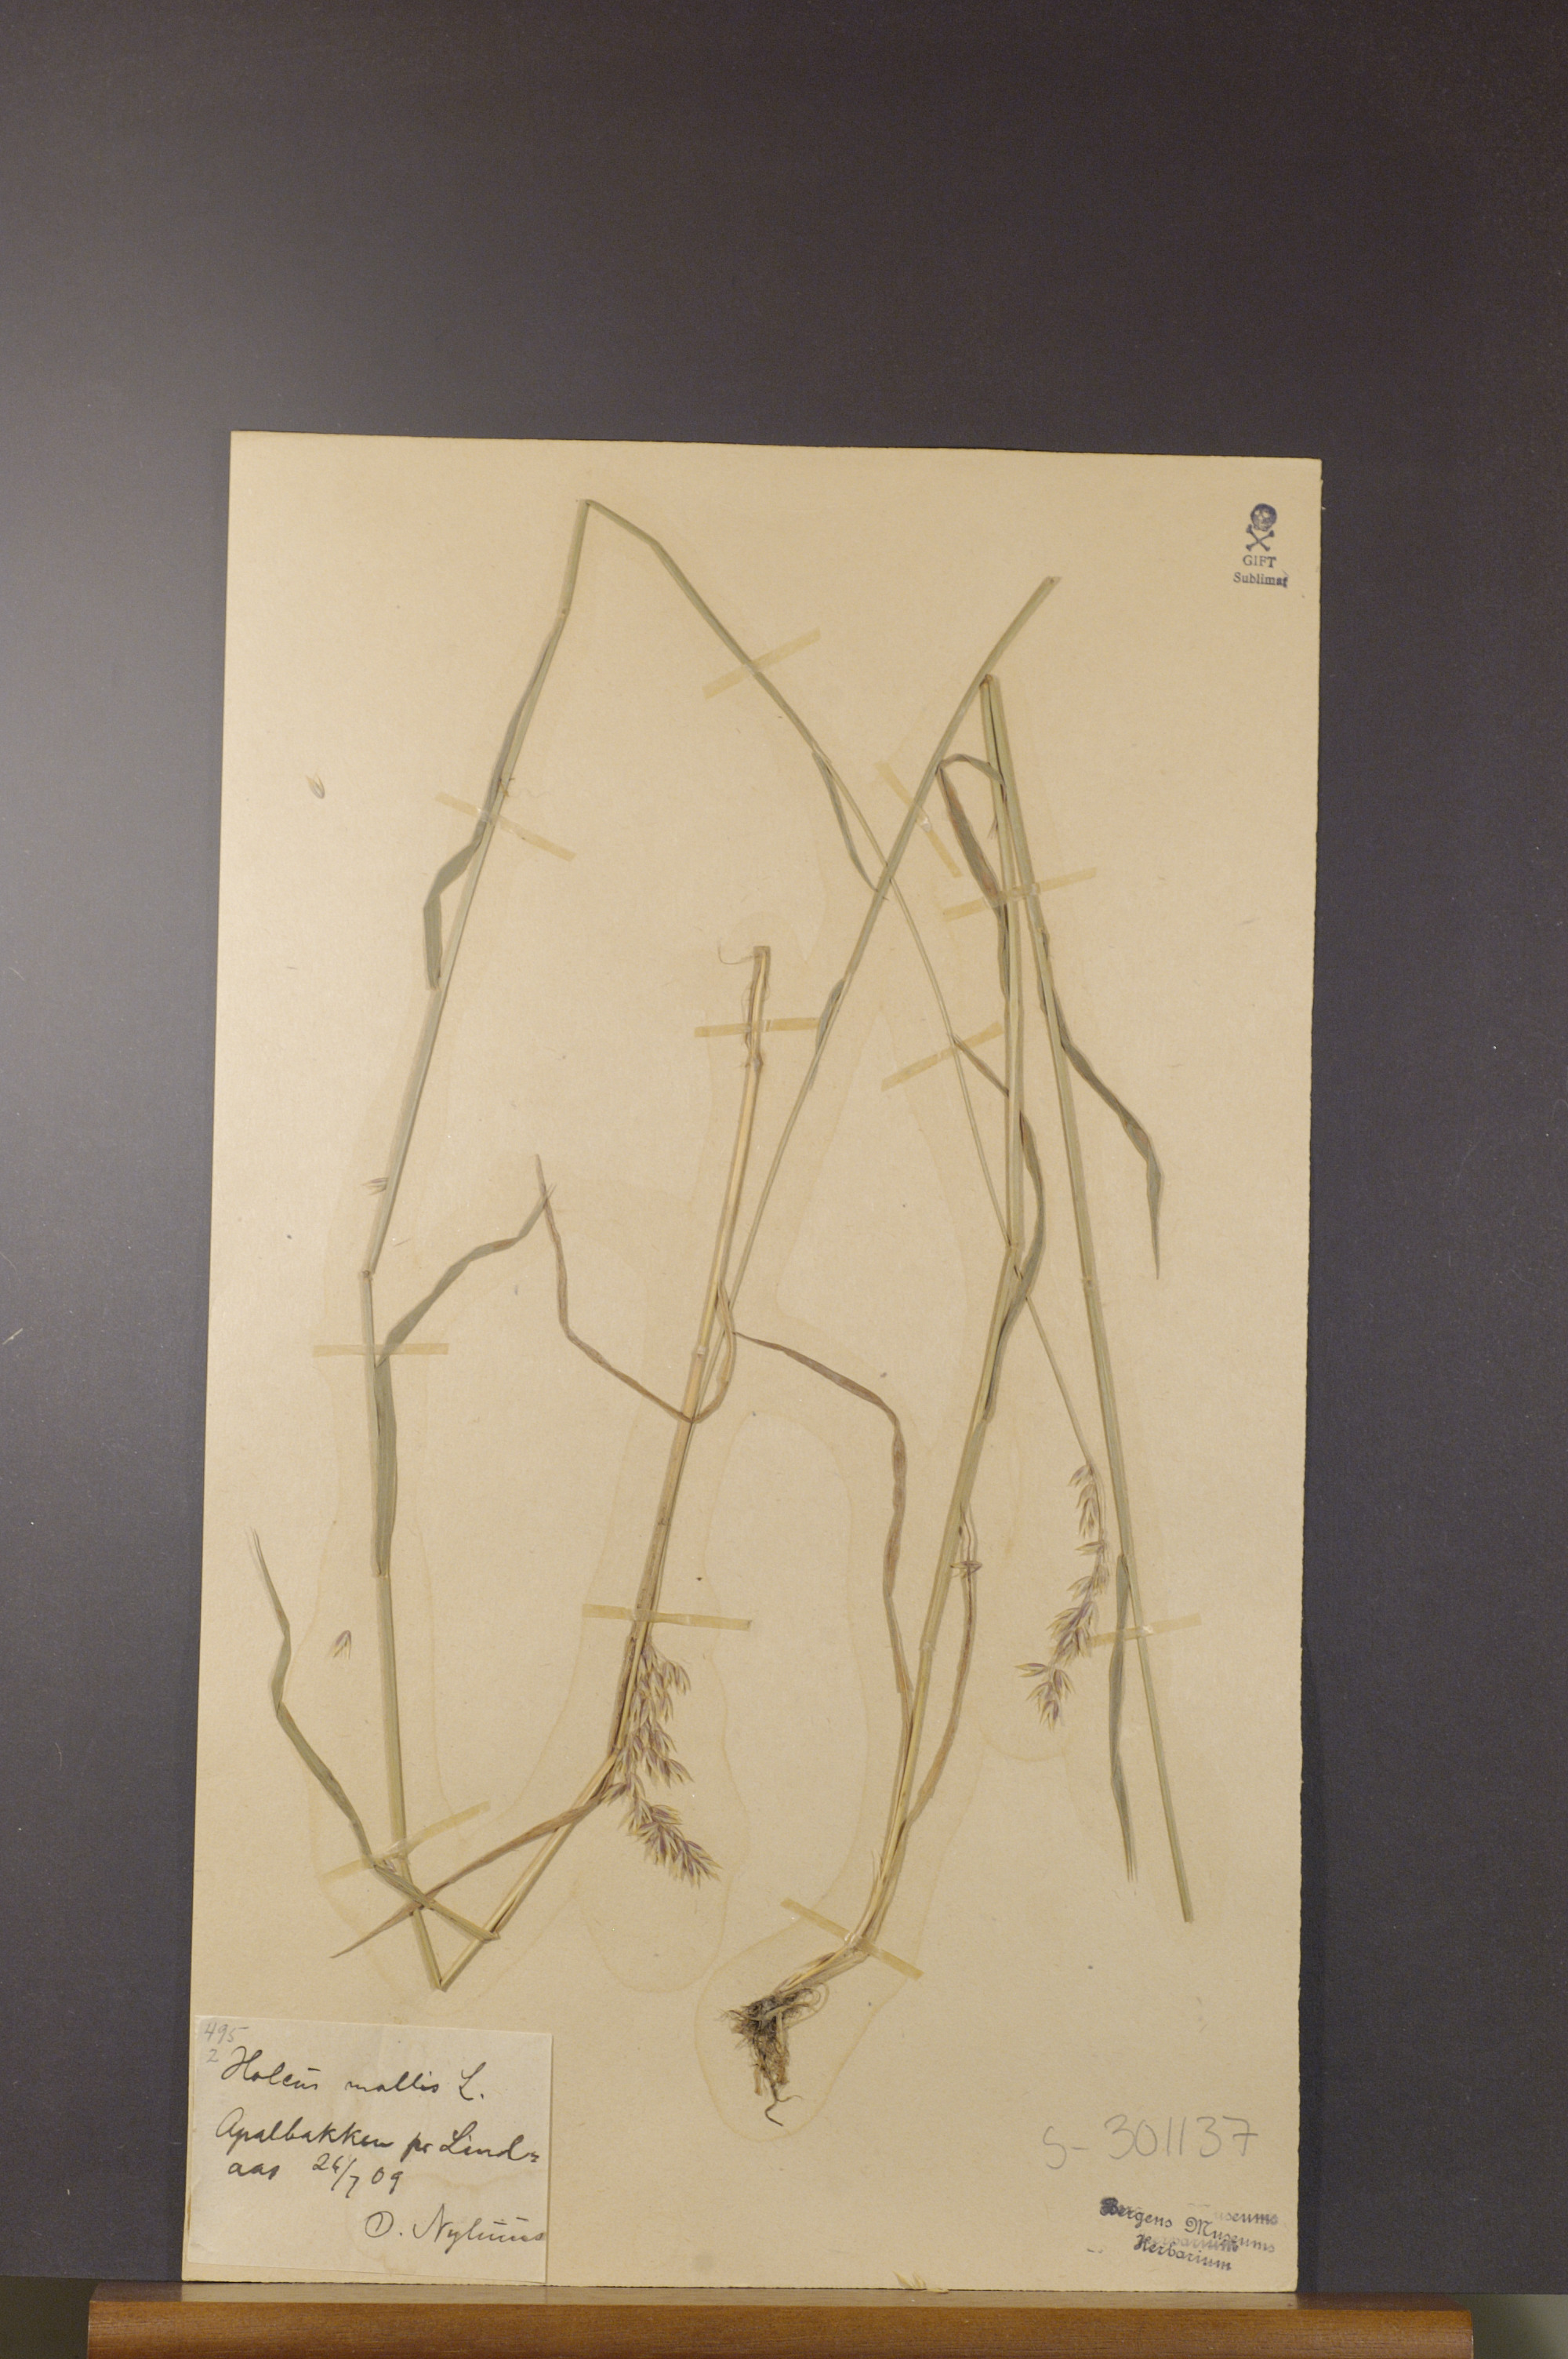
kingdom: Plantae
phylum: Tracheophyta
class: Liliopsida
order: Poales
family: Poaceae
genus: Holcus
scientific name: Holcus mollis
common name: Creeping velvetgrass
